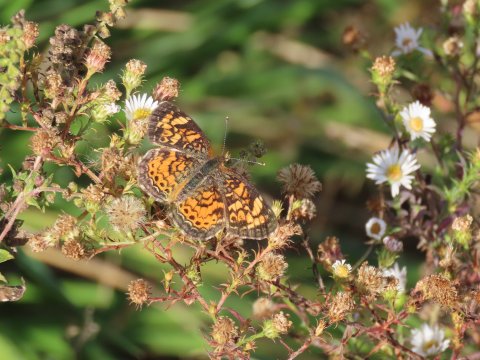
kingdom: Animalia
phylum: Arthropoda
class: Insecta
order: Lepidoptera
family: Nymphalidae
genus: Phyciodes
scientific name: Phyciodes tharos
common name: Pearl Crescent
